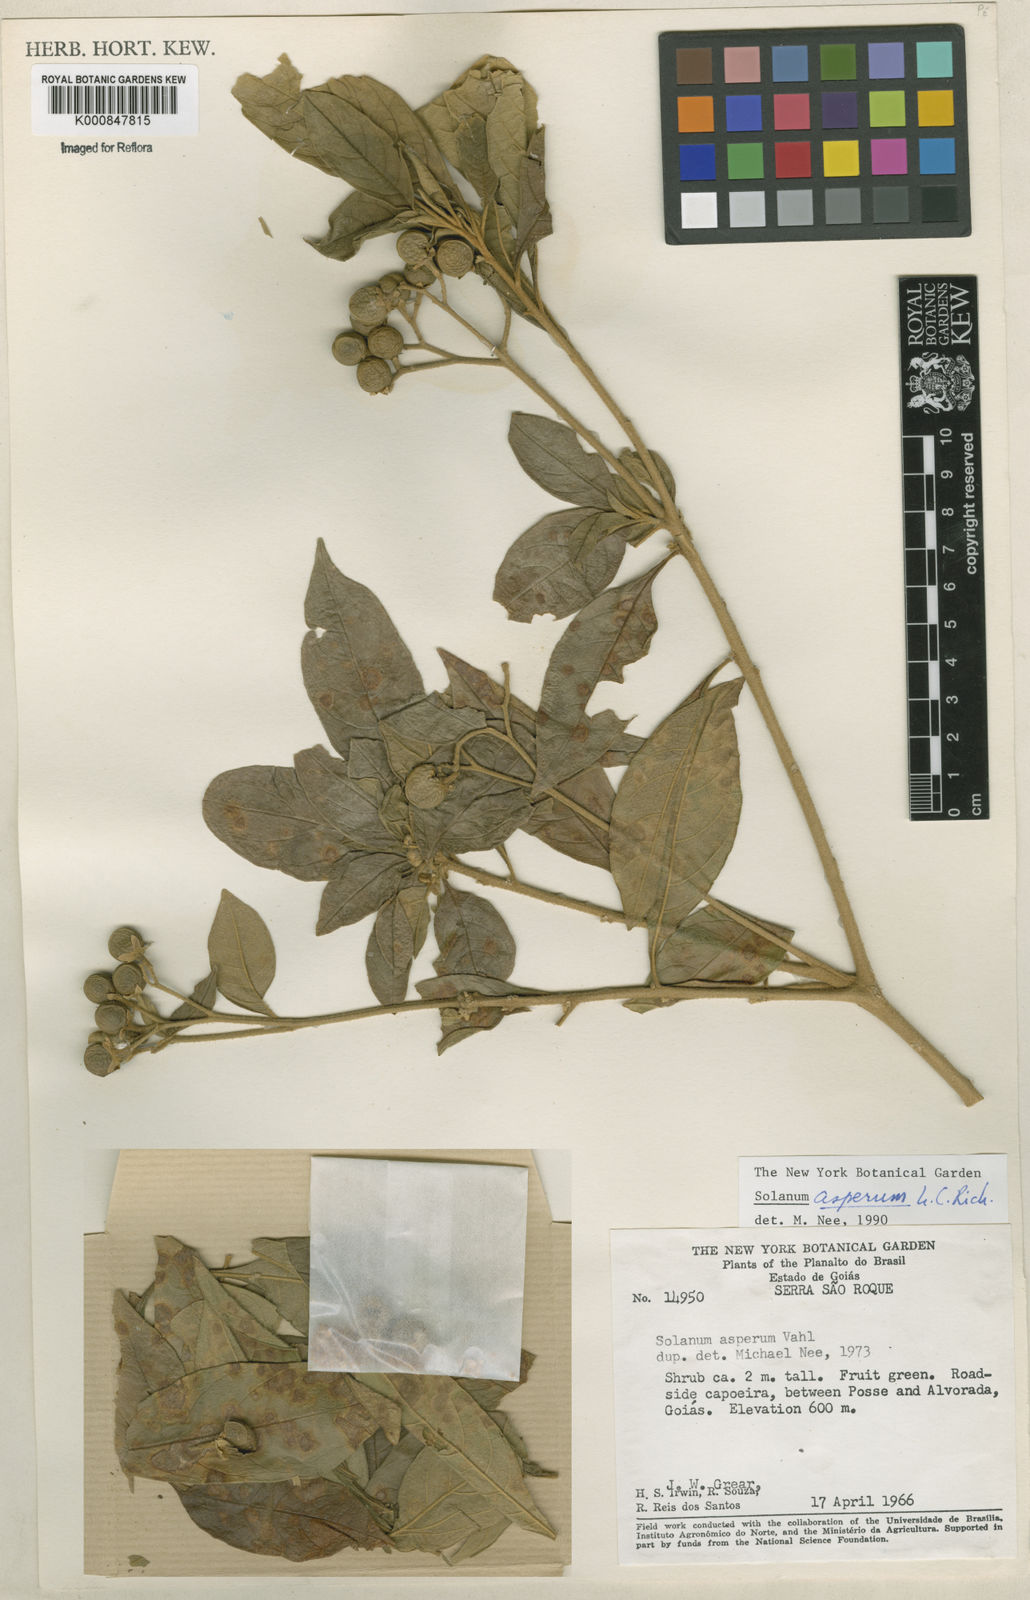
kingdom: Plantae
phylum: Tracheophyta
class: Magnoliopsida
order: Solanales
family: Solanaceae
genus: Solanum
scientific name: Solanum asperum
